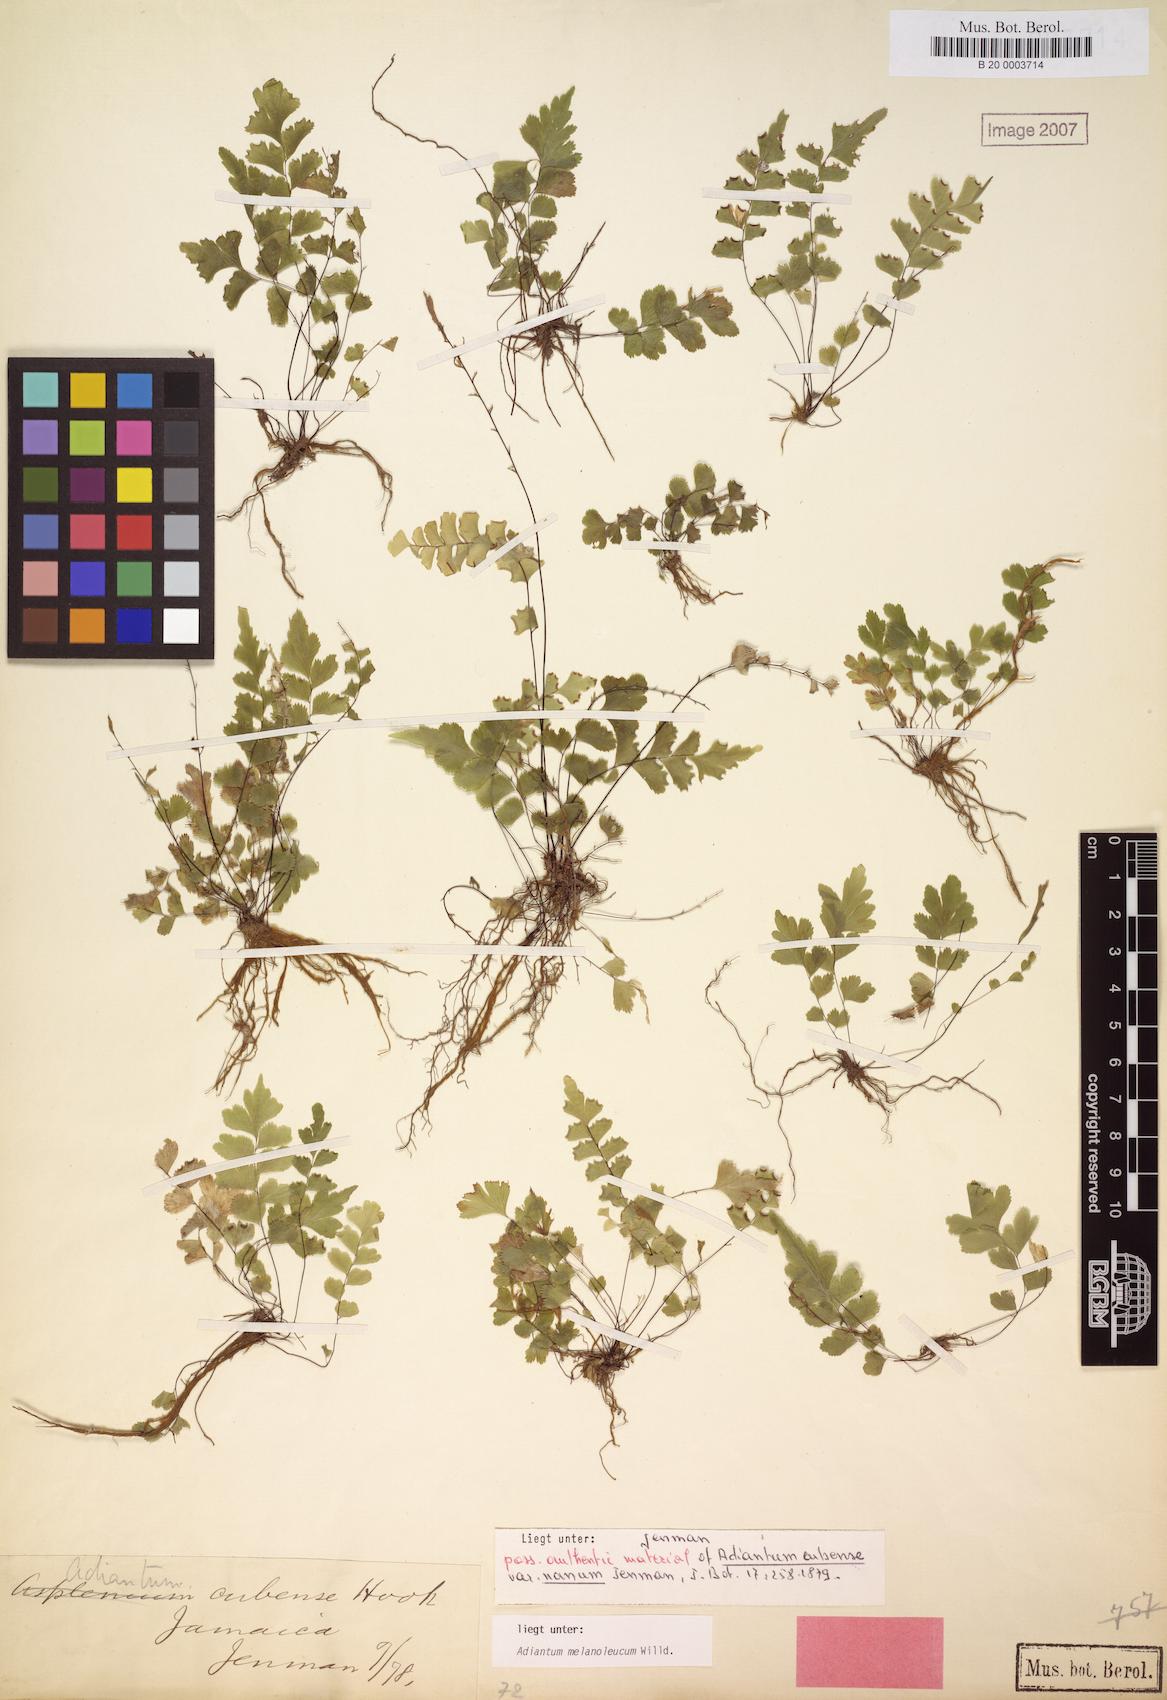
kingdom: Plantae
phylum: Tracheophyta
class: Polypodiopsida
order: Polypodiales
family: Pteridaceae
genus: Adiantum
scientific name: Adiantum melanoleucum
